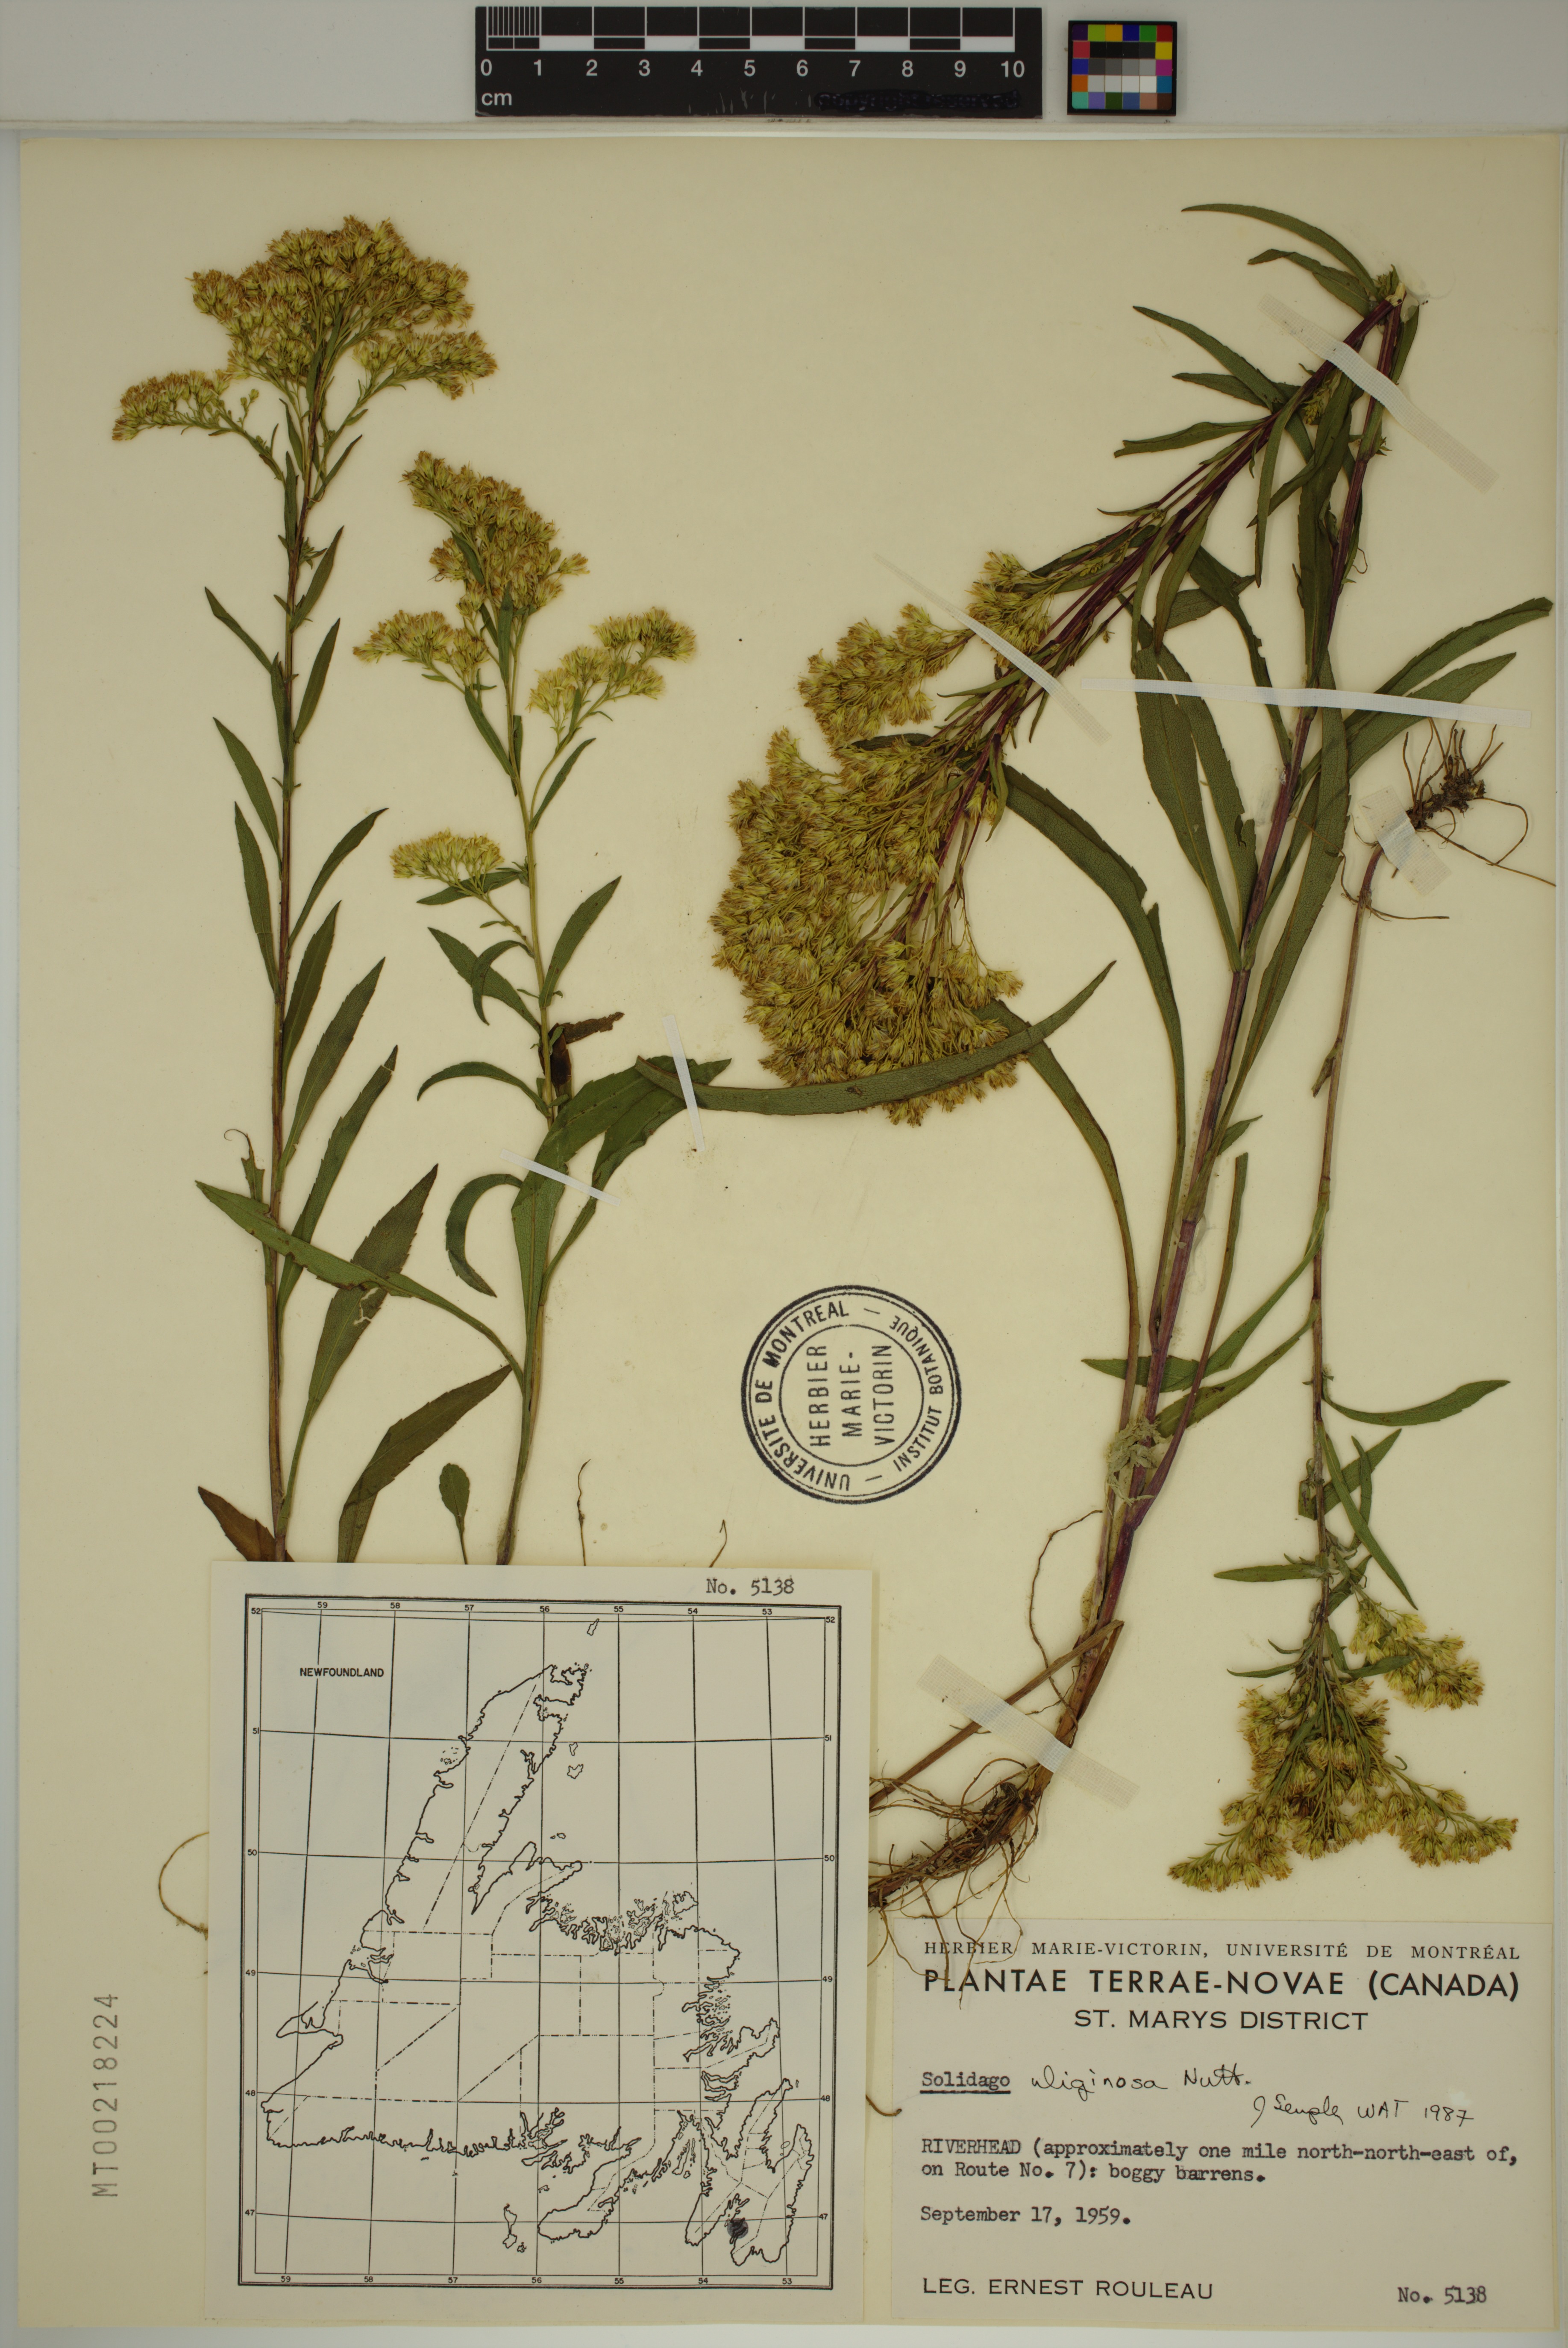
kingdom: Plantae
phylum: Tracheophyta
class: Magnoliopsida
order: Asterales
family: Asteraceae
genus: Solidago
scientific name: Solidago uliginosa
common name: Bog goldenrod
